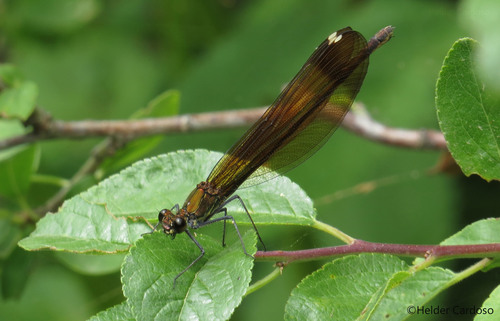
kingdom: Animalia
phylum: Arthropoda
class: Insecta
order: Odonata
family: Calopterygidae
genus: Calopteryx
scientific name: Calopteryx haemorrhoidalis
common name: Copper demoiselle
